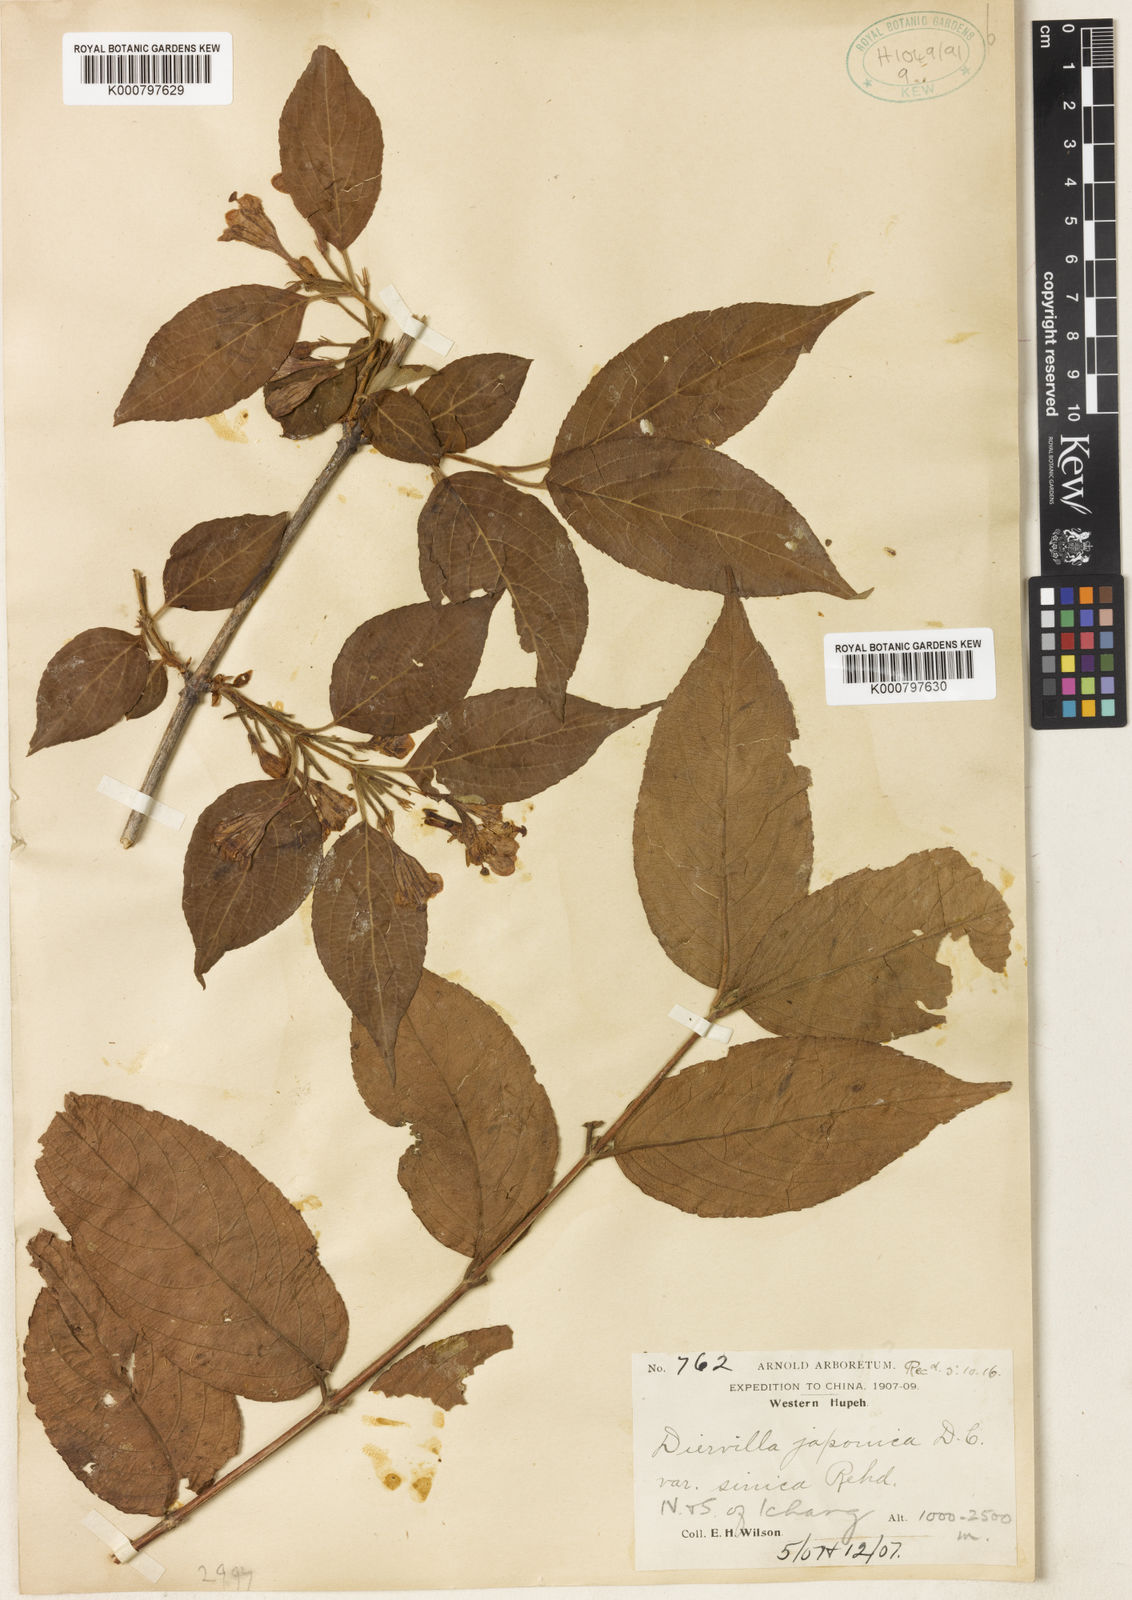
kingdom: Plantae
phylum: Tracheophyta
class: Magnoliopsida
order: Dipsacales
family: Caprifoliaceae
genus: Weigela
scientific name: Weigela japonica
